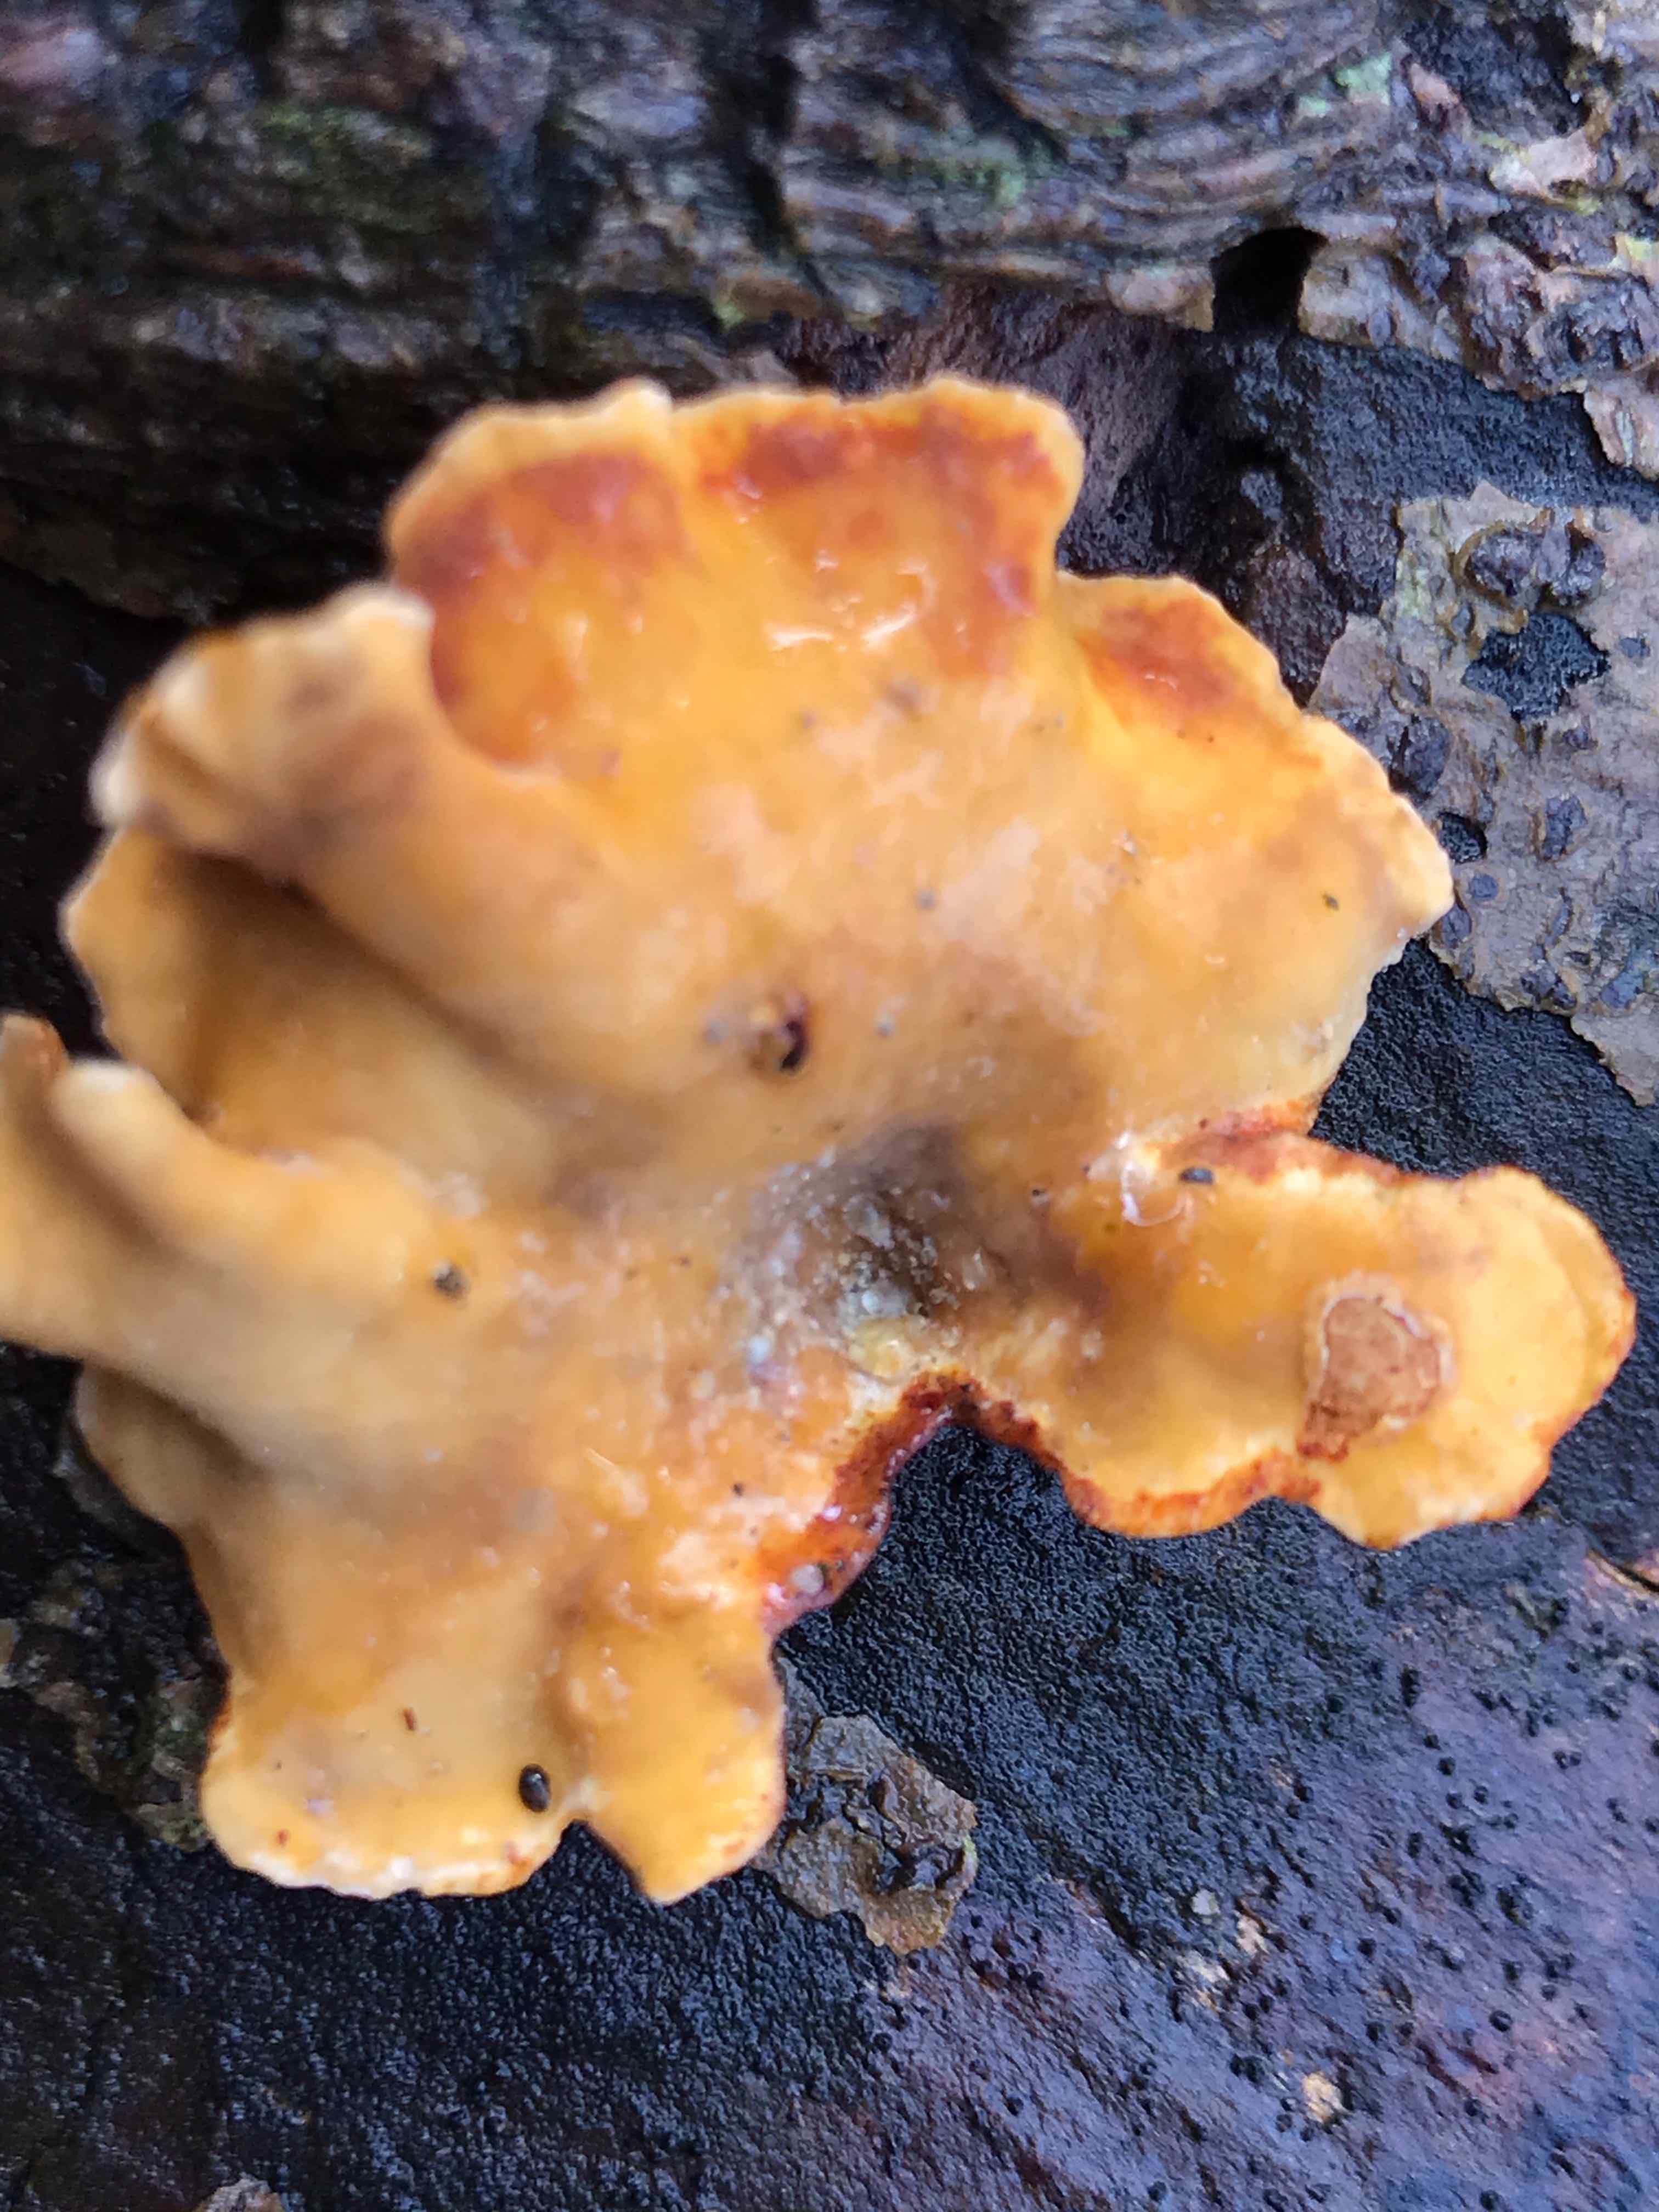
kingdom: Fungi
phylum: Basidiomycota
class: Agaricomycetes
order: Russulales
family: Stereaceae
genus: Stereum
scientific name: Stereum hirsutum
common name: håret lædersvamp
